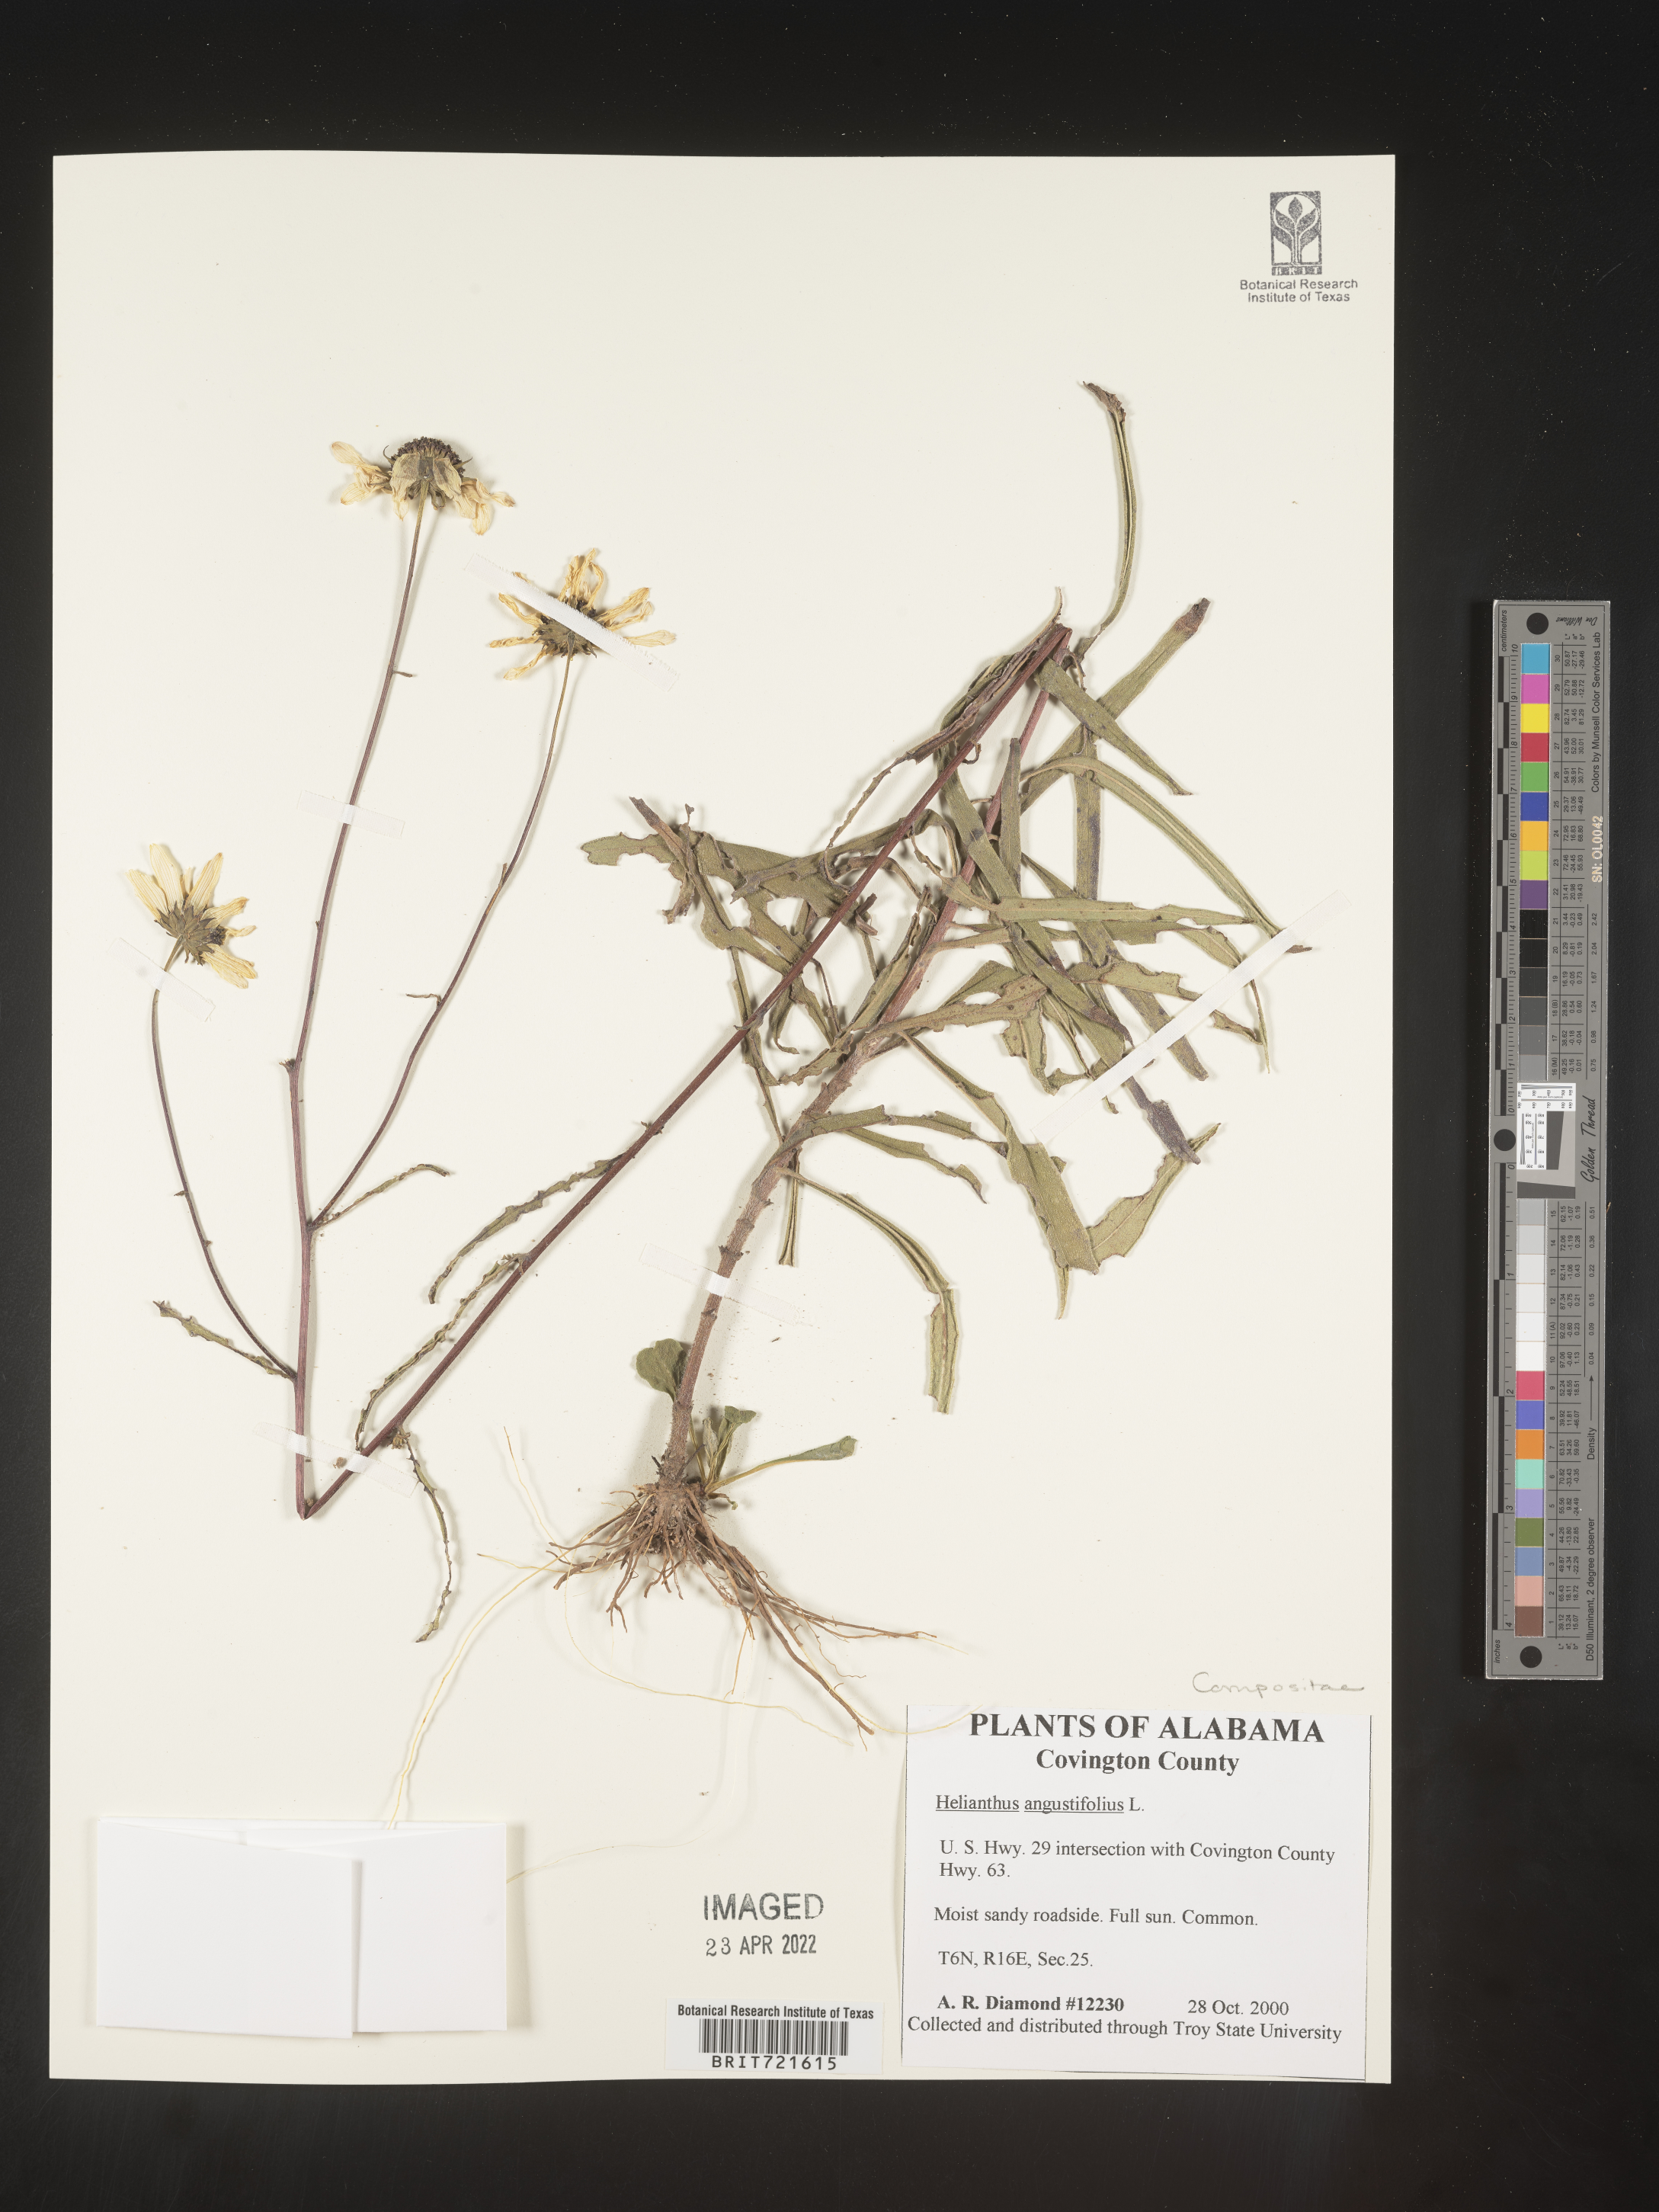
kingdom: Plantae
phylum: Tracheophyta
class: Magnoliopsida
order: Asterales
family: Asteraceae
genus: Helianthus
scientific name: Helianthus angustifolius
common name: Swamp sunflower
